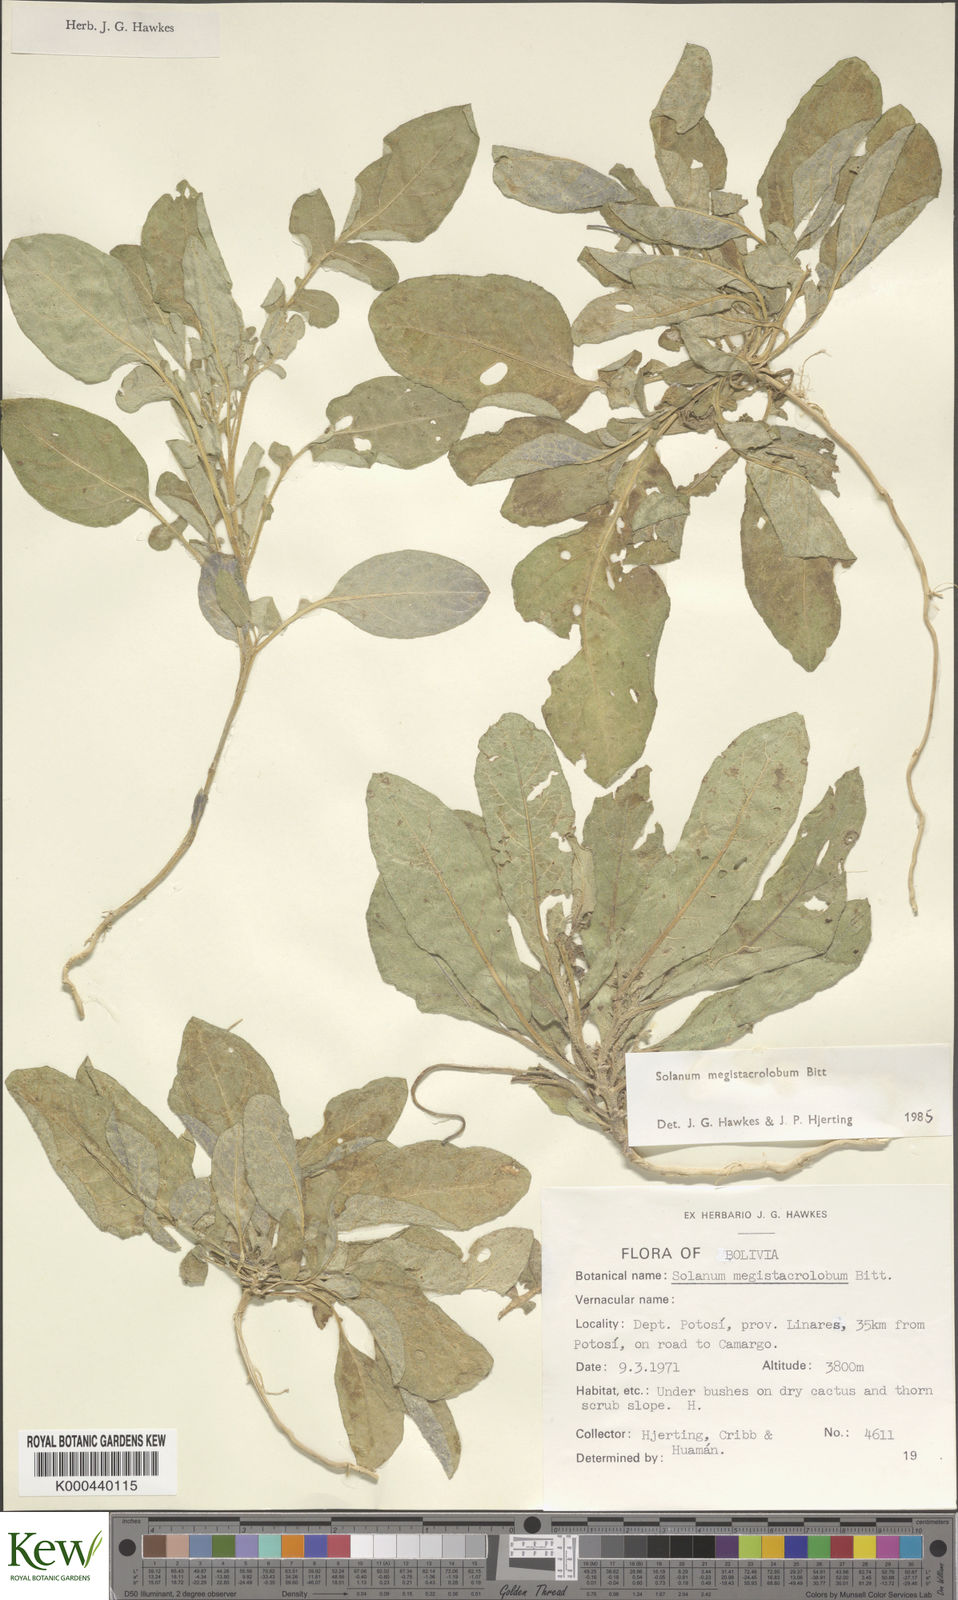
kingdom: Plantae
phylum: Tracheophyta
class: Magnoliopsida
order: Solanales
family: Solanaceae
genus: Solanum
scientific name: Solanum boliviense
